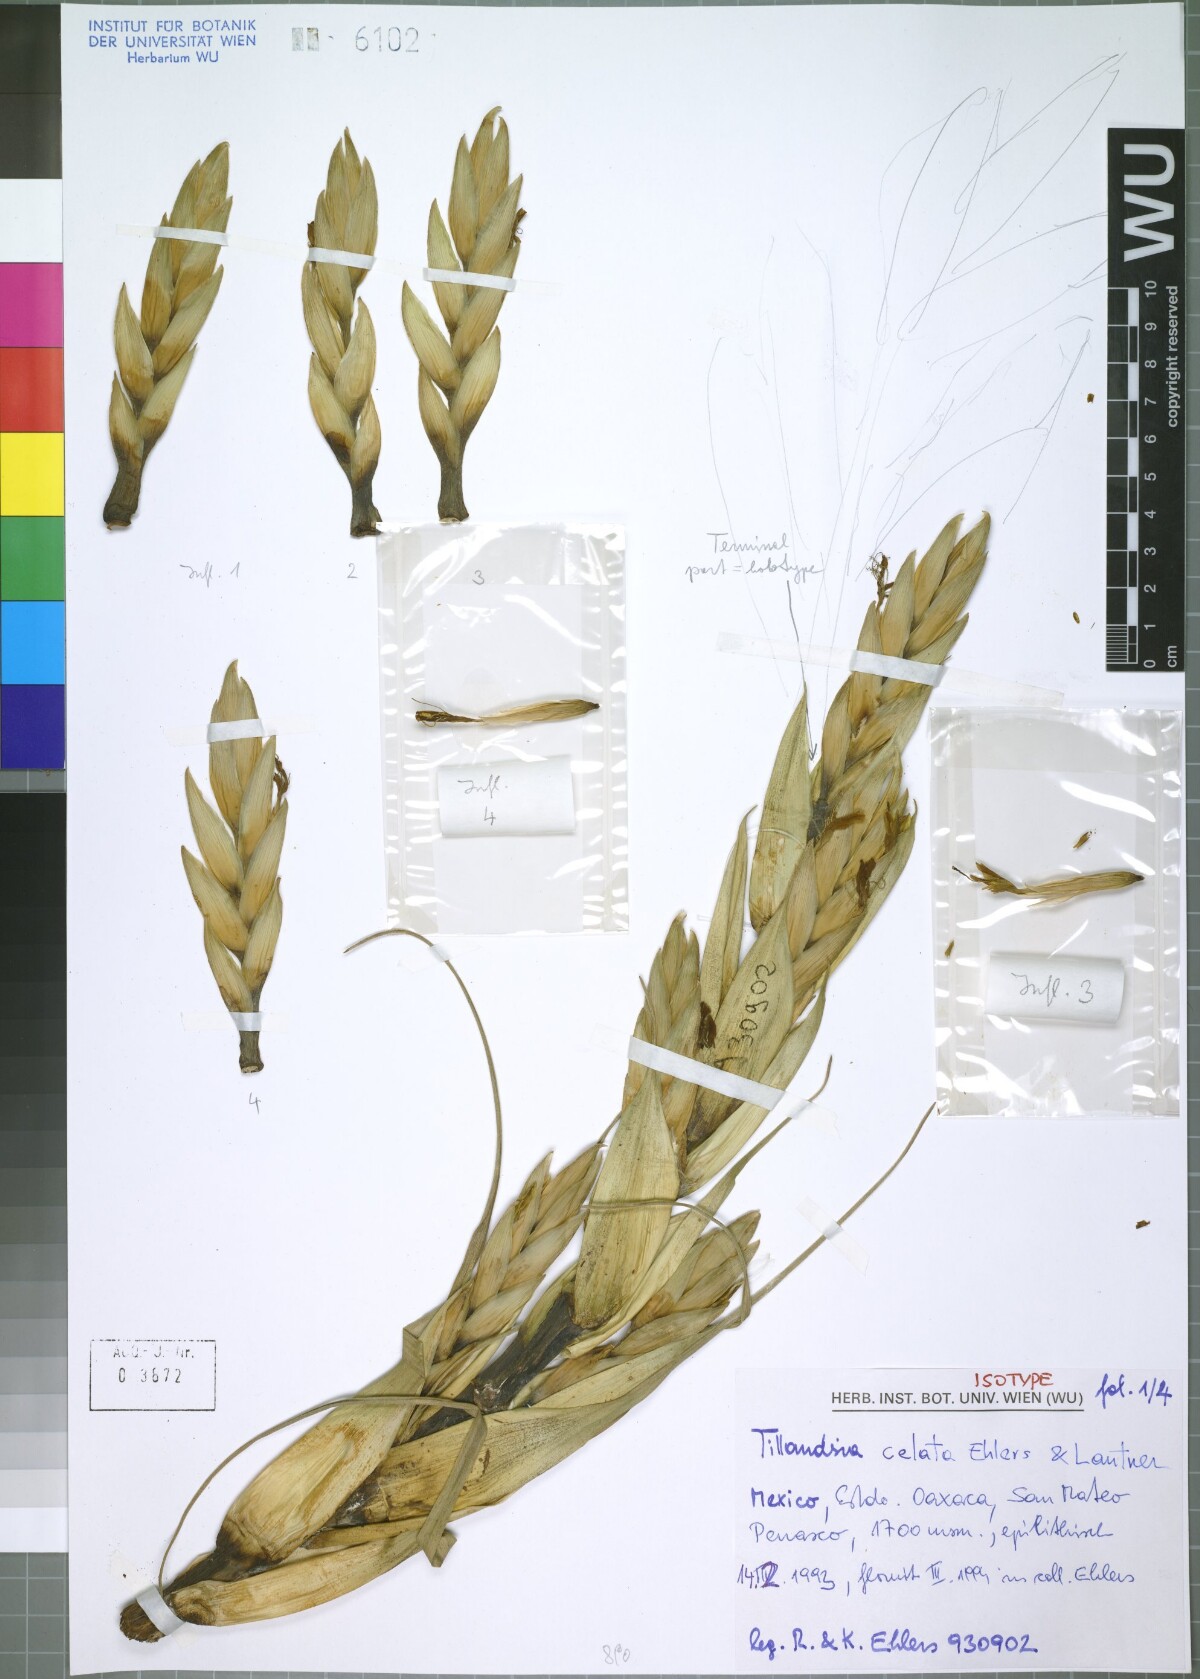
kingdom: Plantae
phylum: Tracheophyta
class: Liliopsida
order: Poales
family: Bromeliaceae
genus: Tillandsia
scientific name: Tillandsia celata
